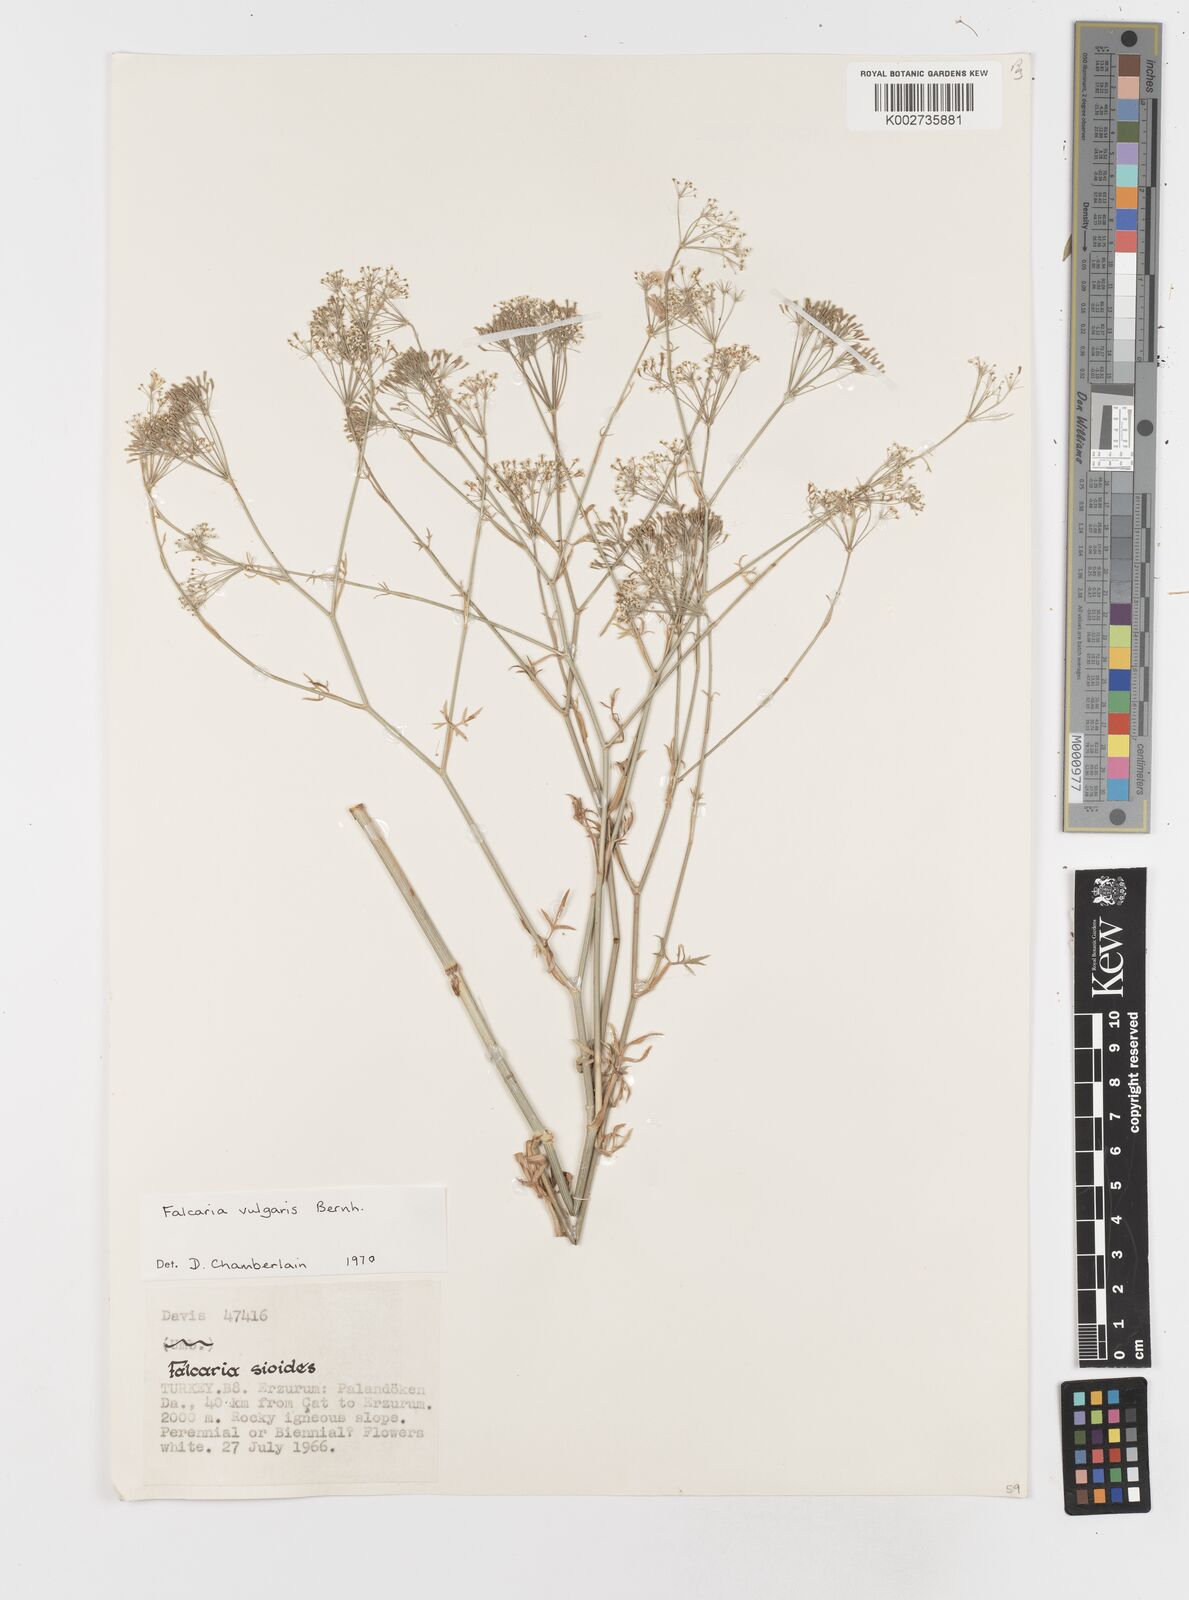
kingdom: Plantae
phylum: Tracheophyta
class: Magnoliopsida
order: Apiales
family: Apiaceae
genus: Falcaria
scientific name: Falcaria vulgaris
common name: Longleaf
